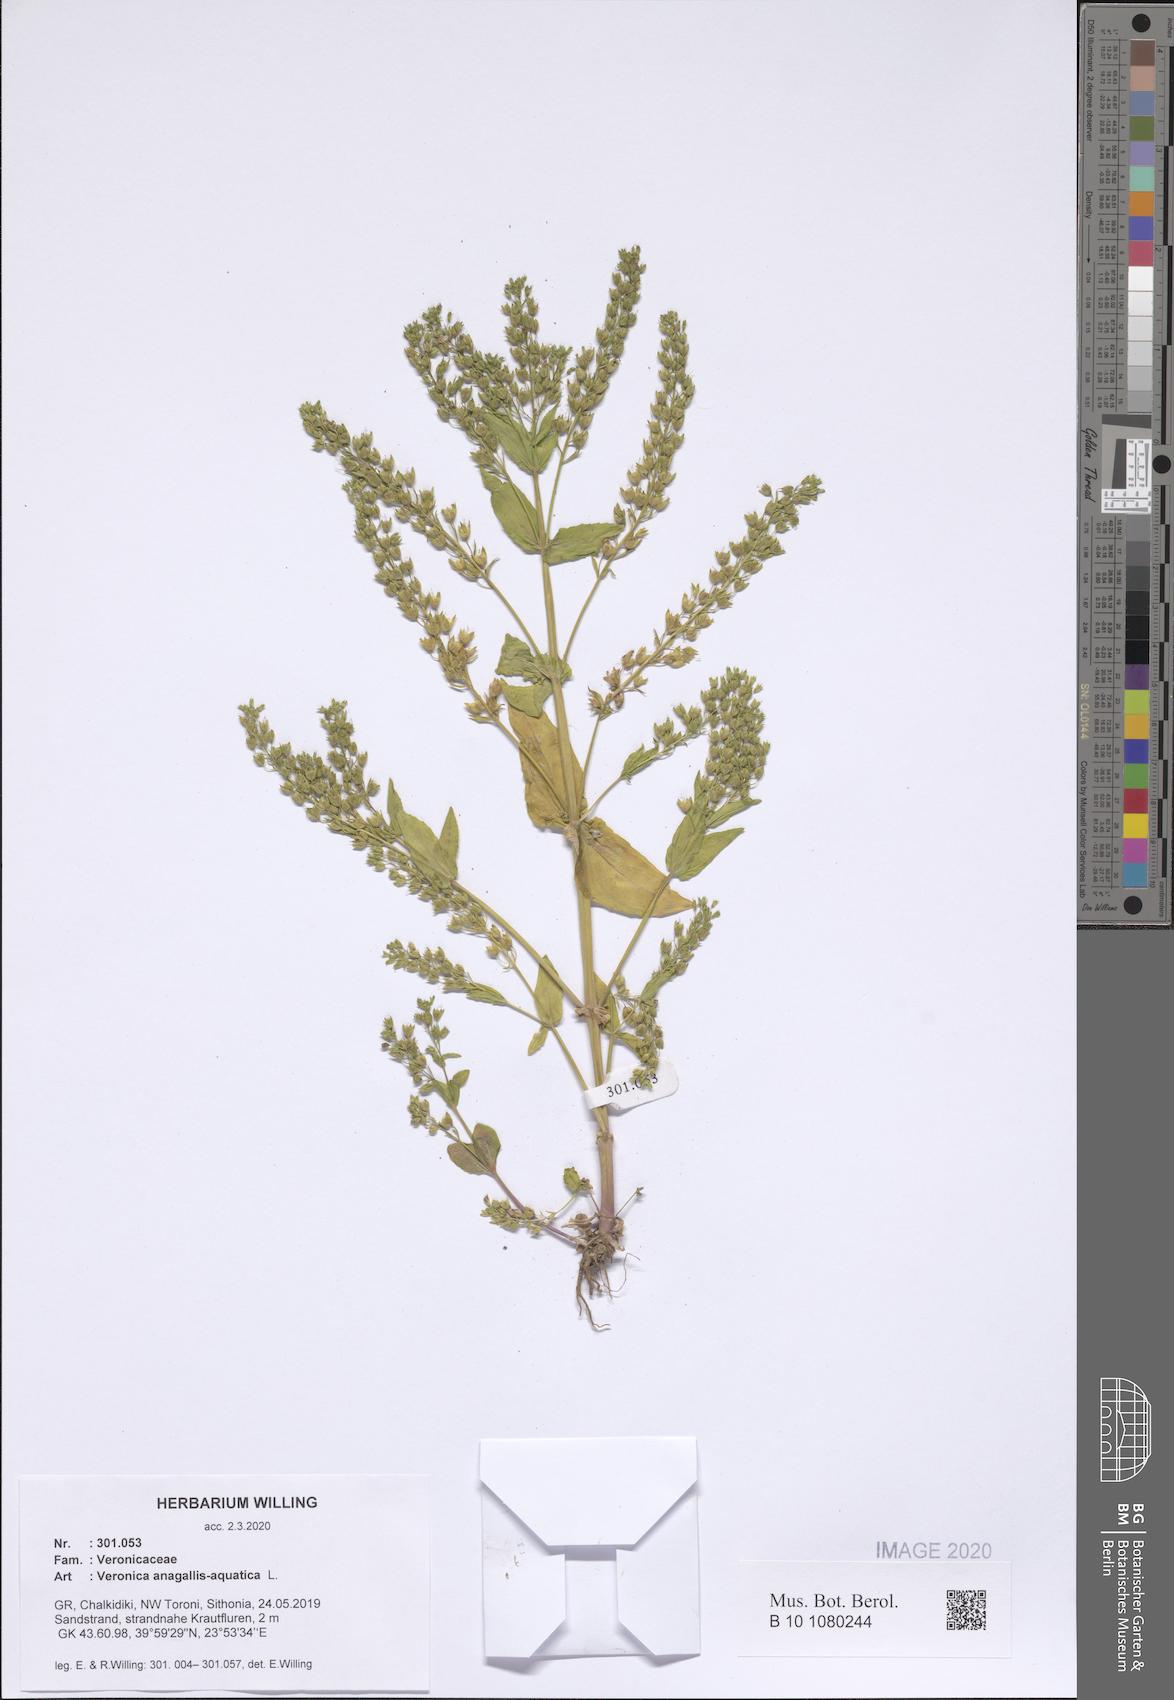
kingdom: Plantae
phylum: Tracheophyta
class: Magnoliopsida
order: Lamiales
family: Plantaginaceae
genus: Veronica
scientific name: Veronica anagallis-aquatica
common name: Water speedwell
